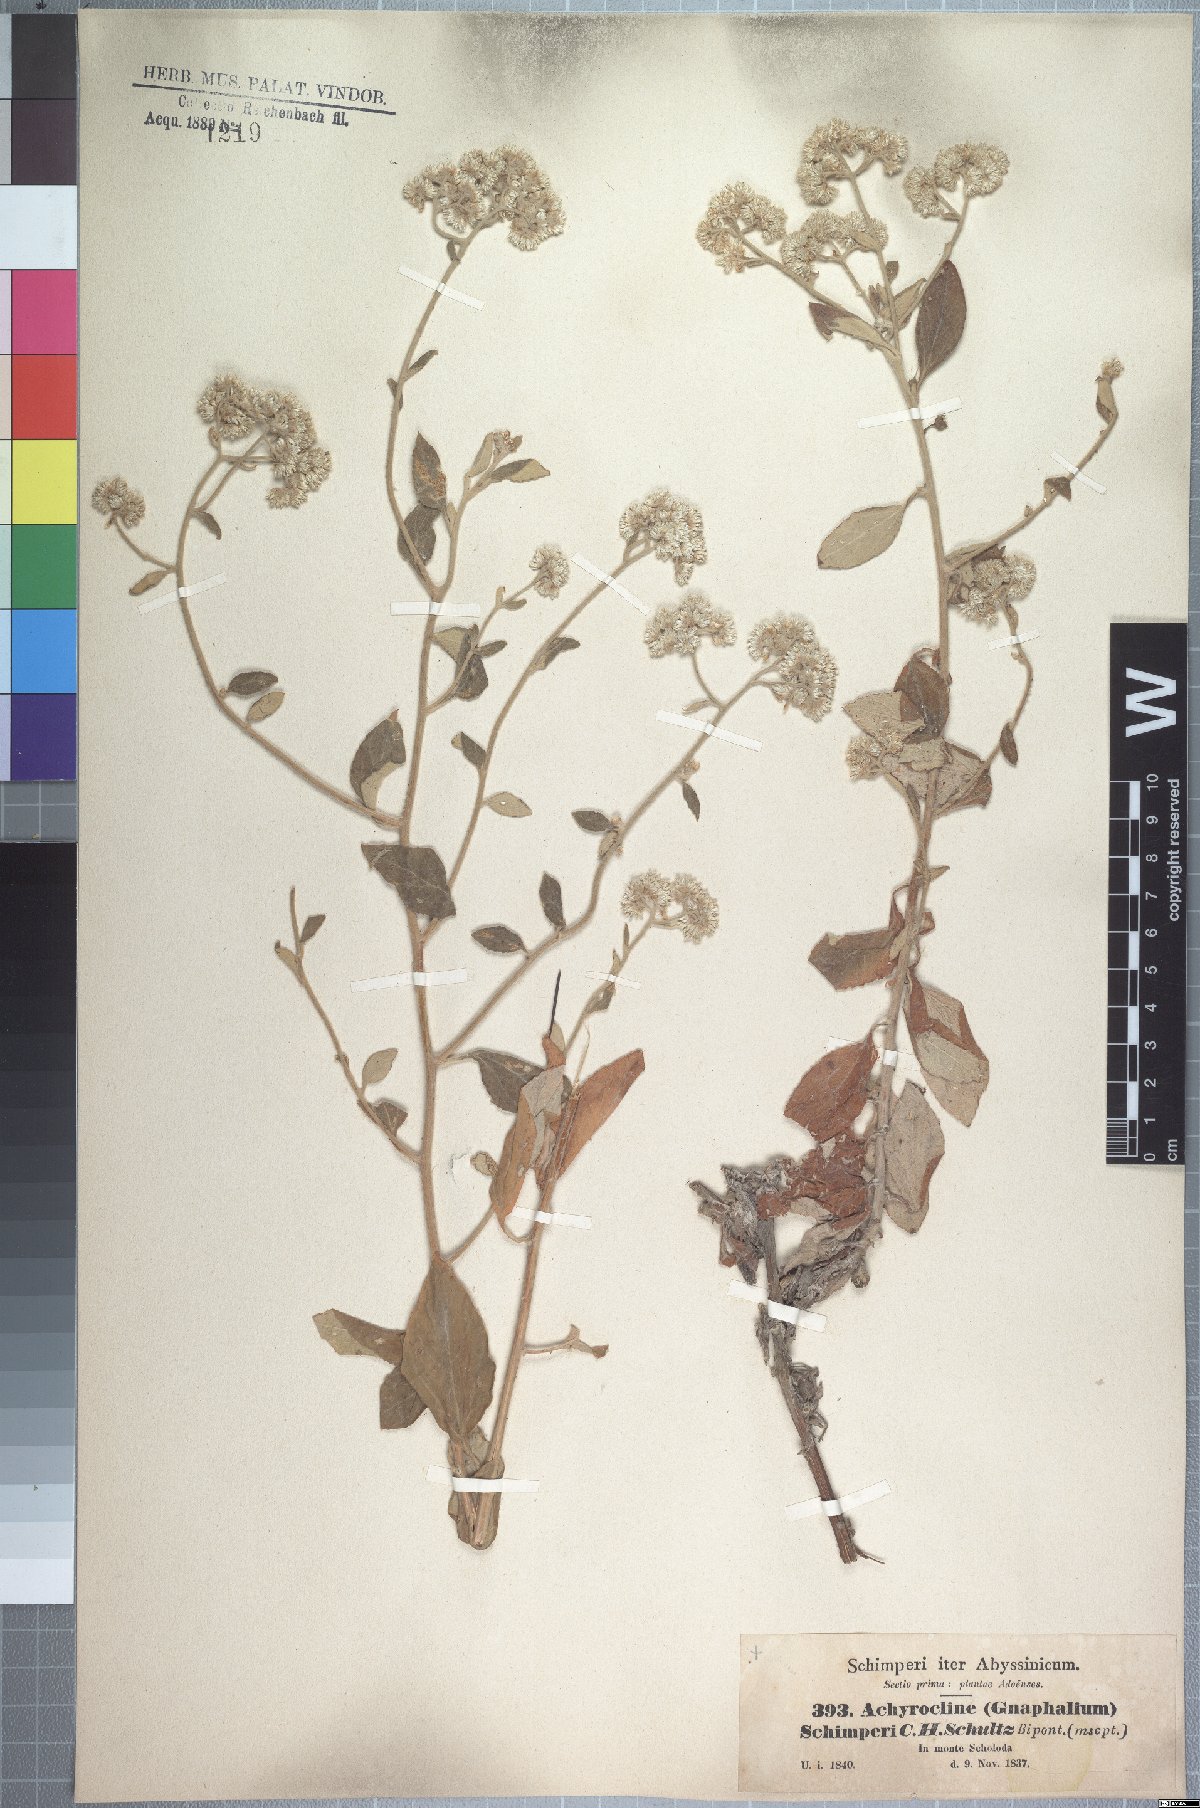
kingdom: Plantae
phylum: Tracheophyta
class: Magnoliopsida
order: Asterales
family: Asteraceae
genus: Helichrysum
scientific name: Helichrysum schimperi
